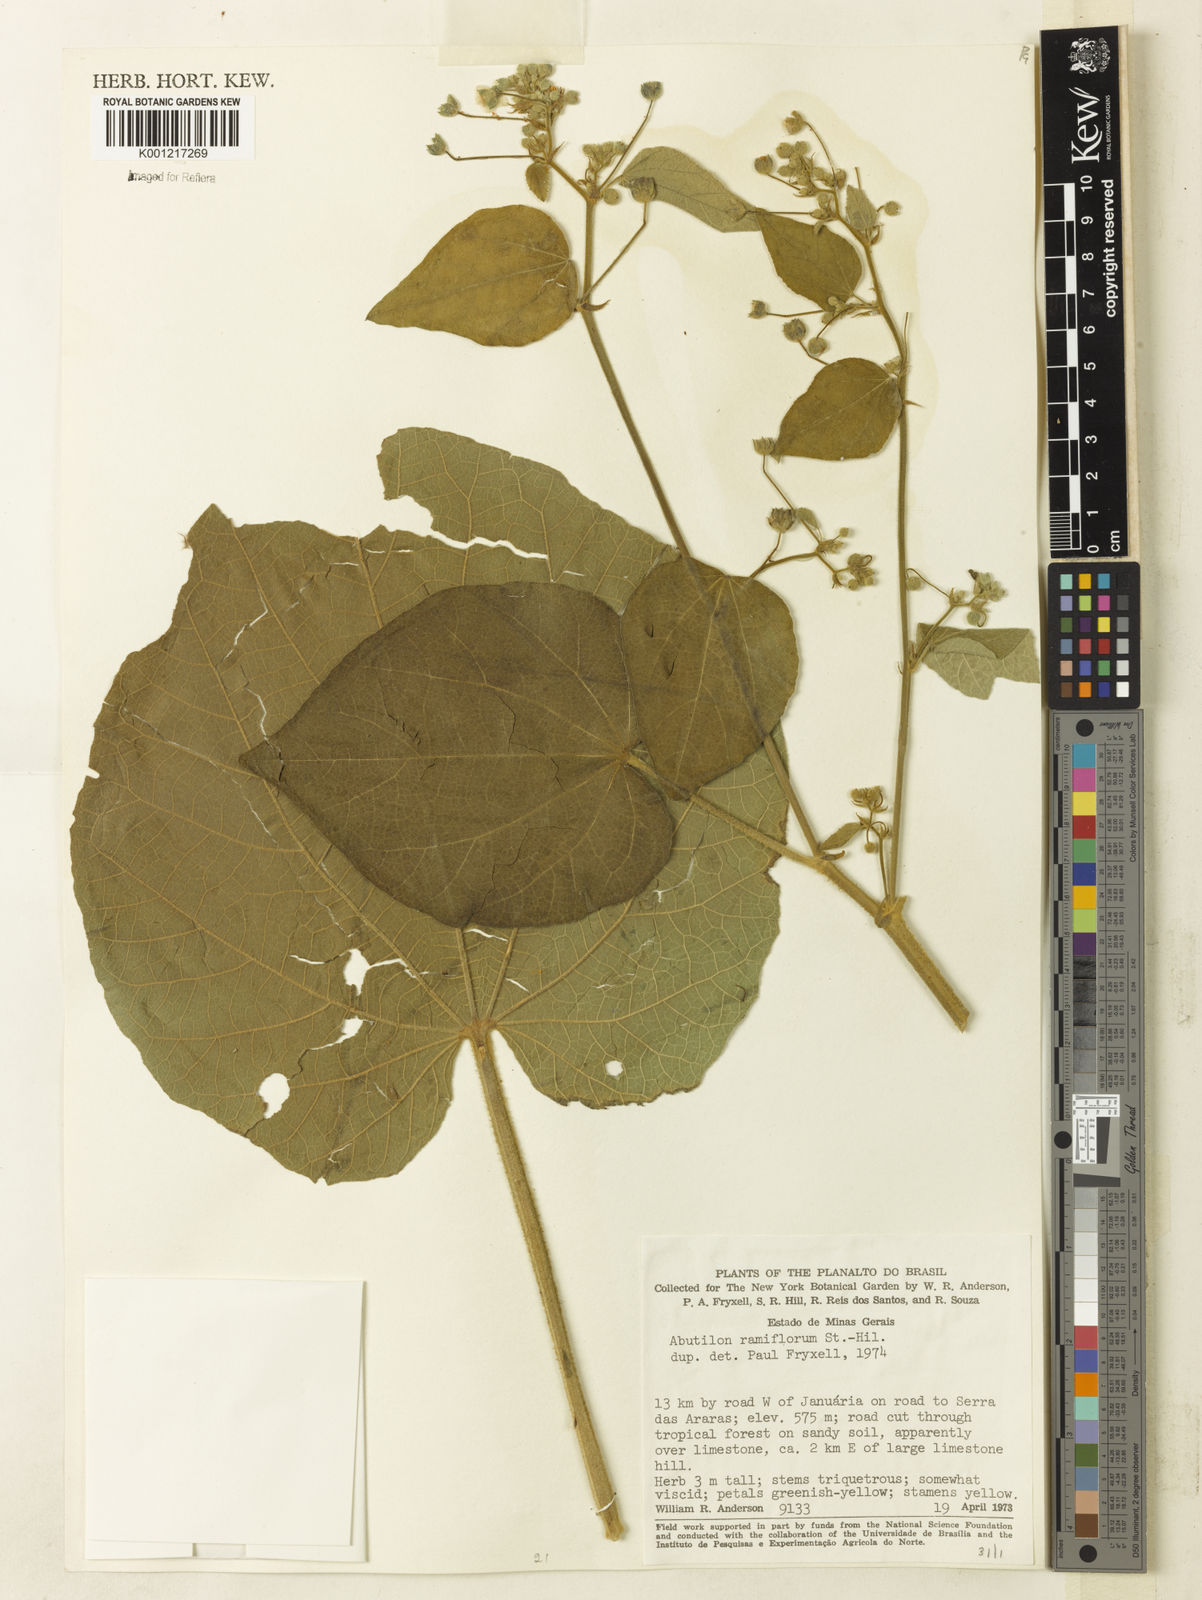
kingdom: Plantae
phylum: Tracheophyta
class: Magnoliopsida
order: Malvales
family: Malvaceae
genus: Abutilon
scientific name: Abutilon ramiflorum
